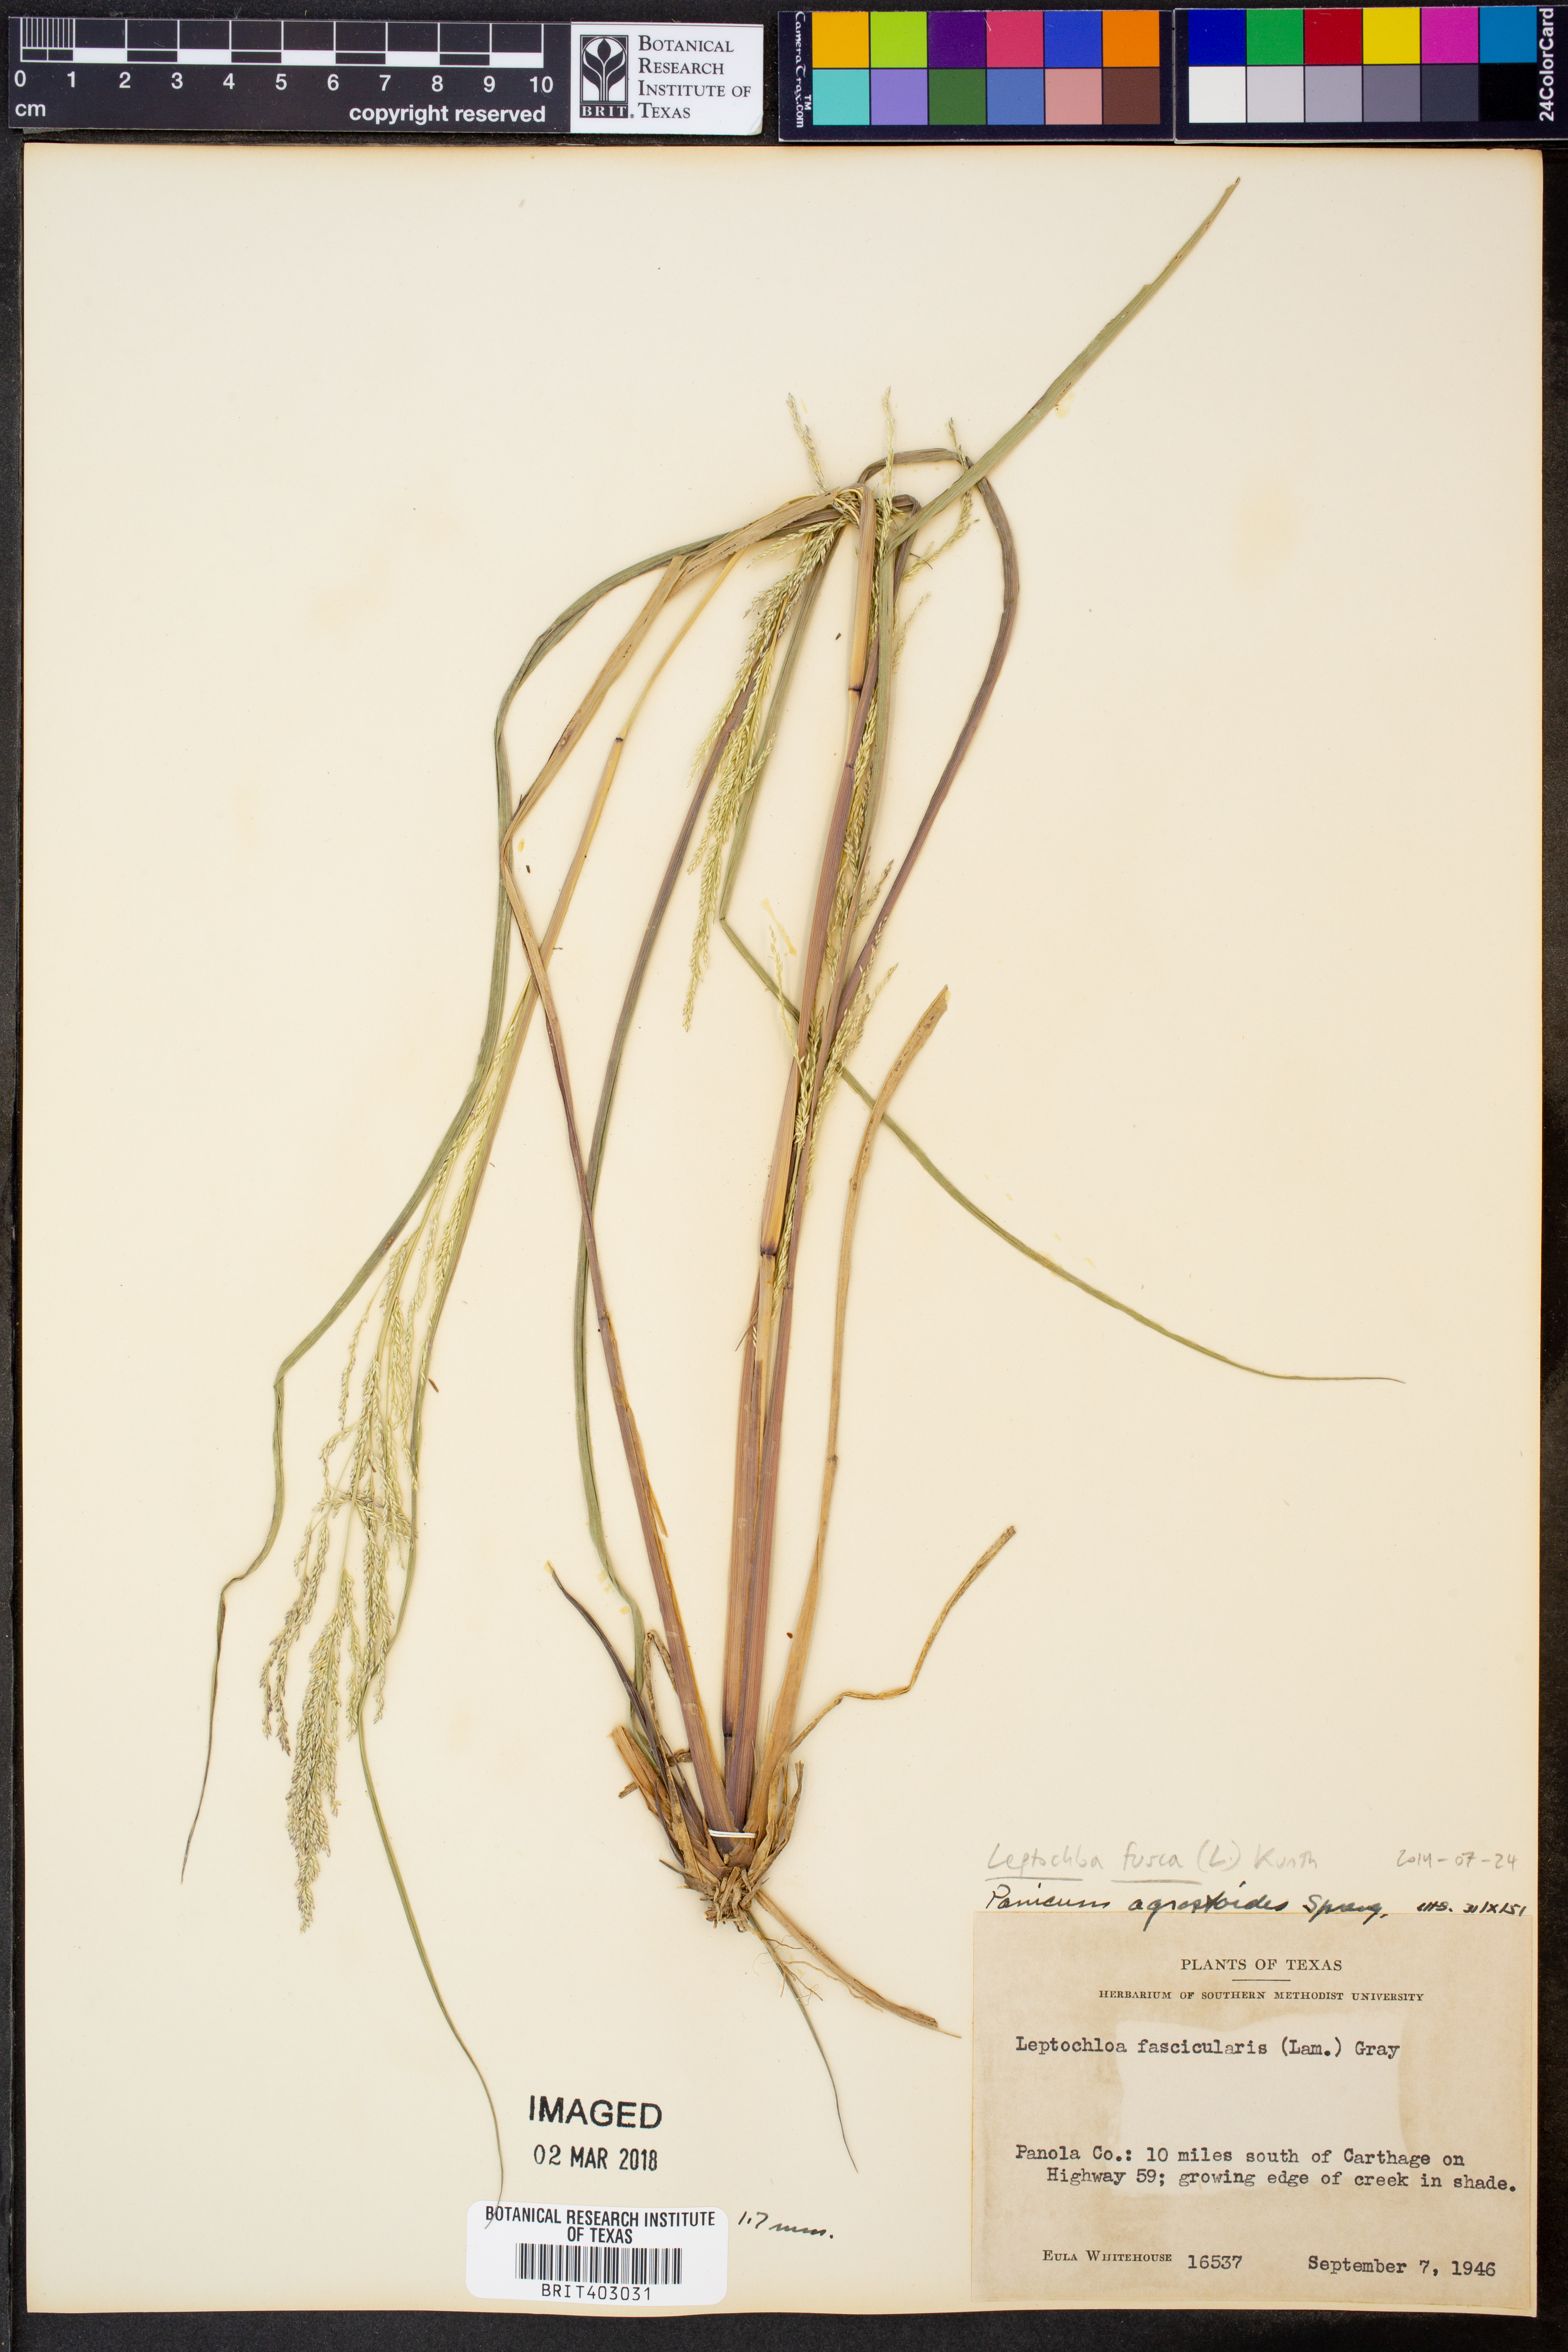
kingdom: Plantae
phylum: Tracheophyta
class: Liliopsida
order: Poales
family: Poaceae
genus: Diplachne
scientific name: Diplachne fusca
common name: Brown beetle grass
